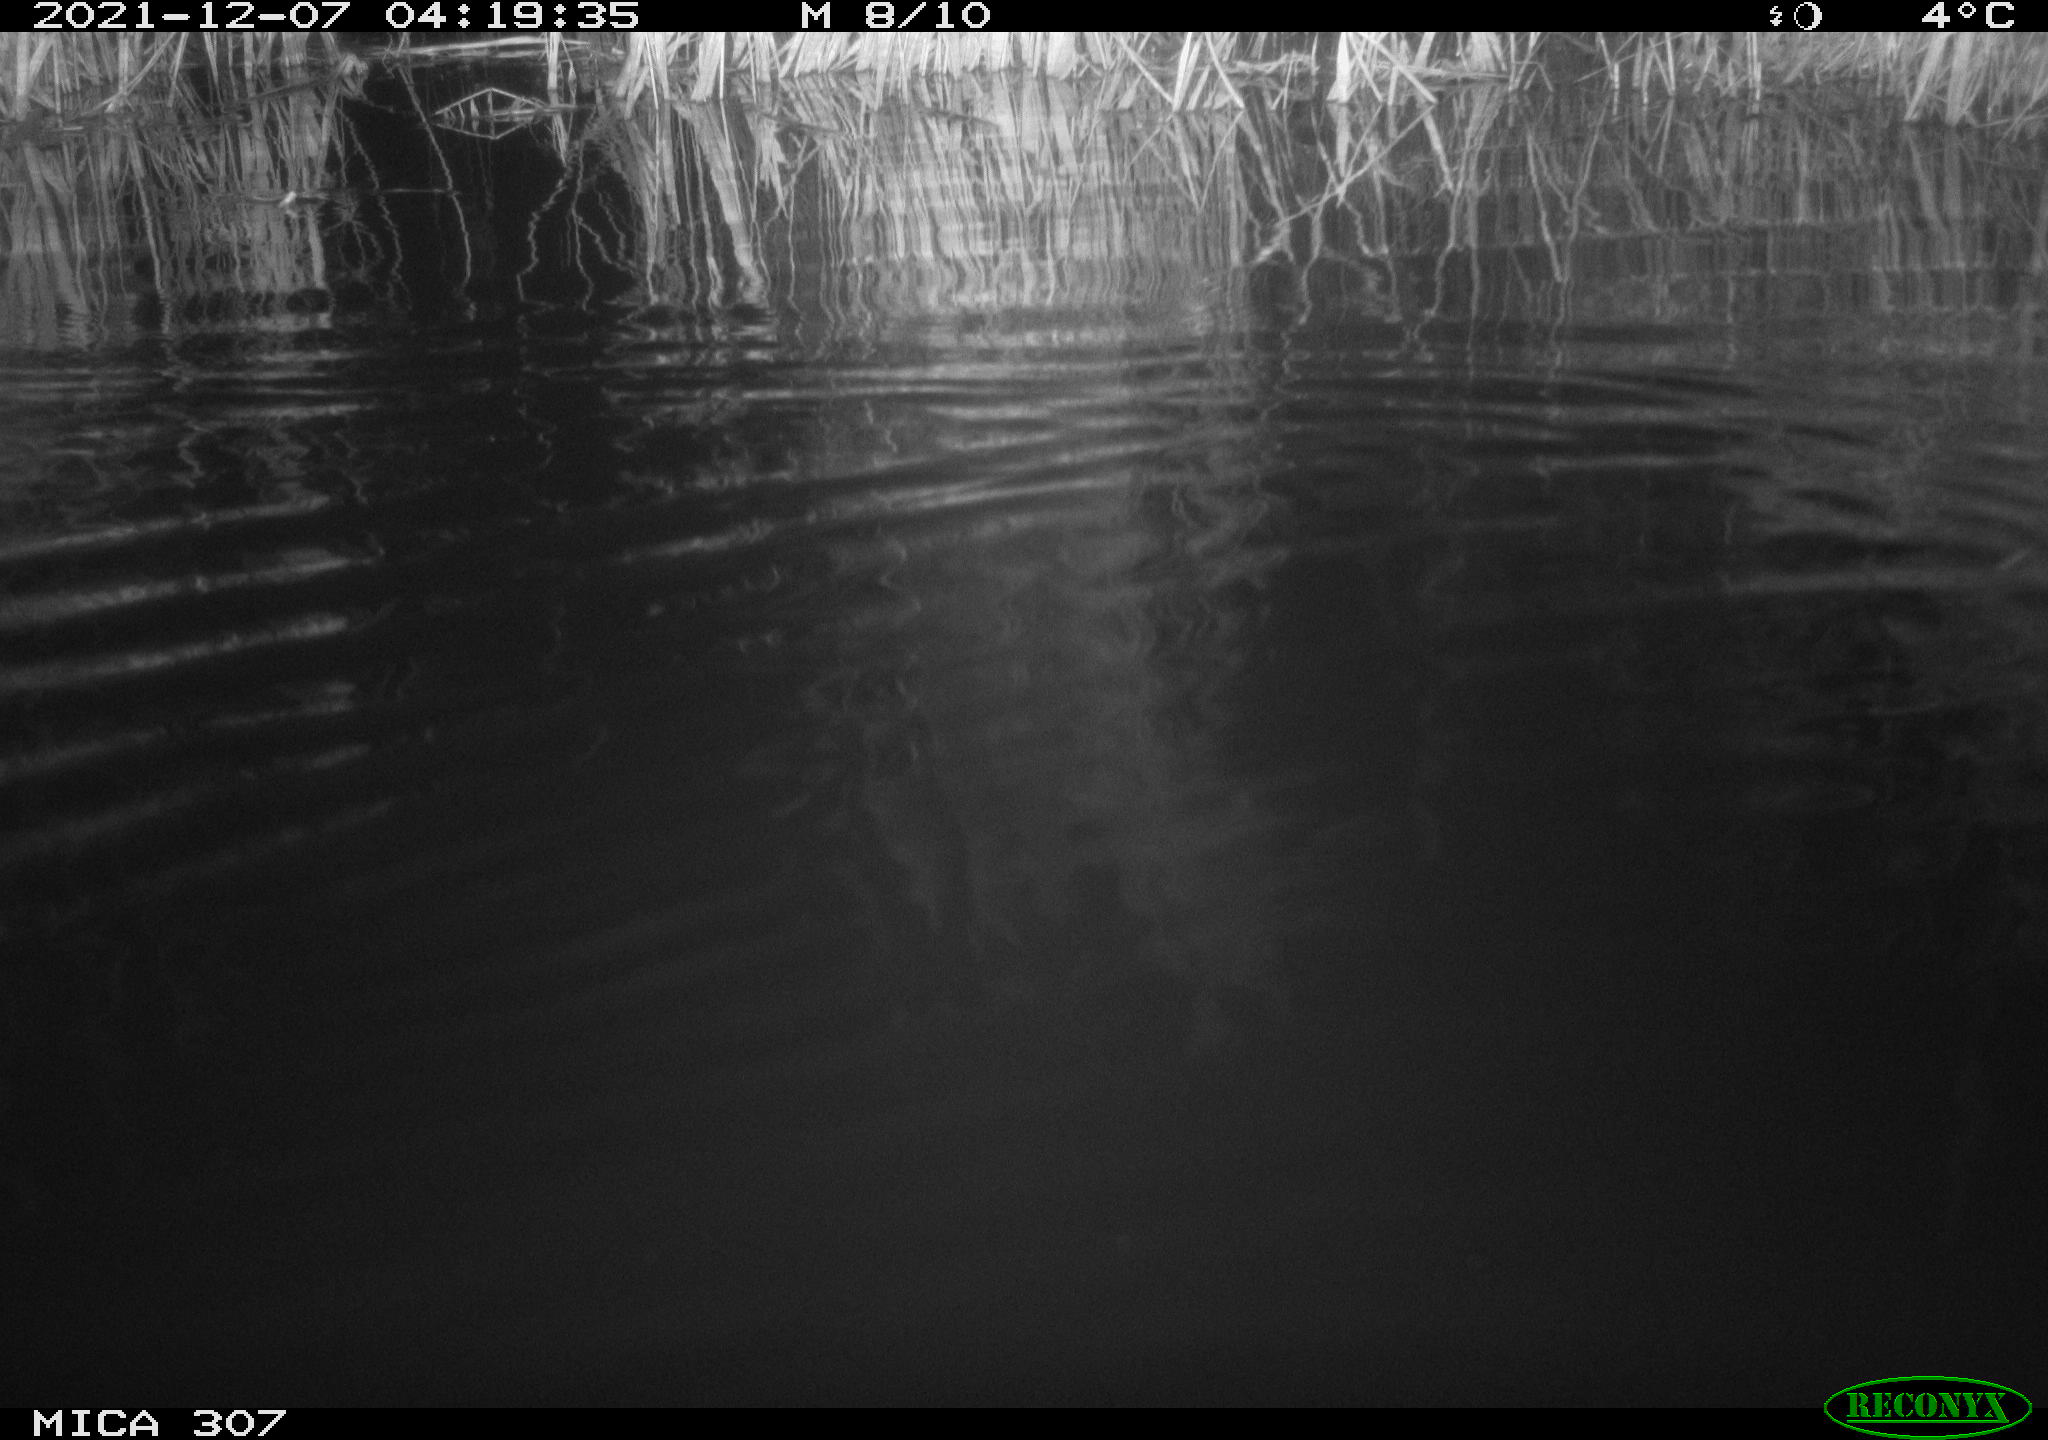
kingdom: Animalia
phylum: Chordata
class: Mammalia
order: Rodentia
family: Muridae
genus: Rattus
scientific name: Rattus norvegicus
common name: Brown rat
